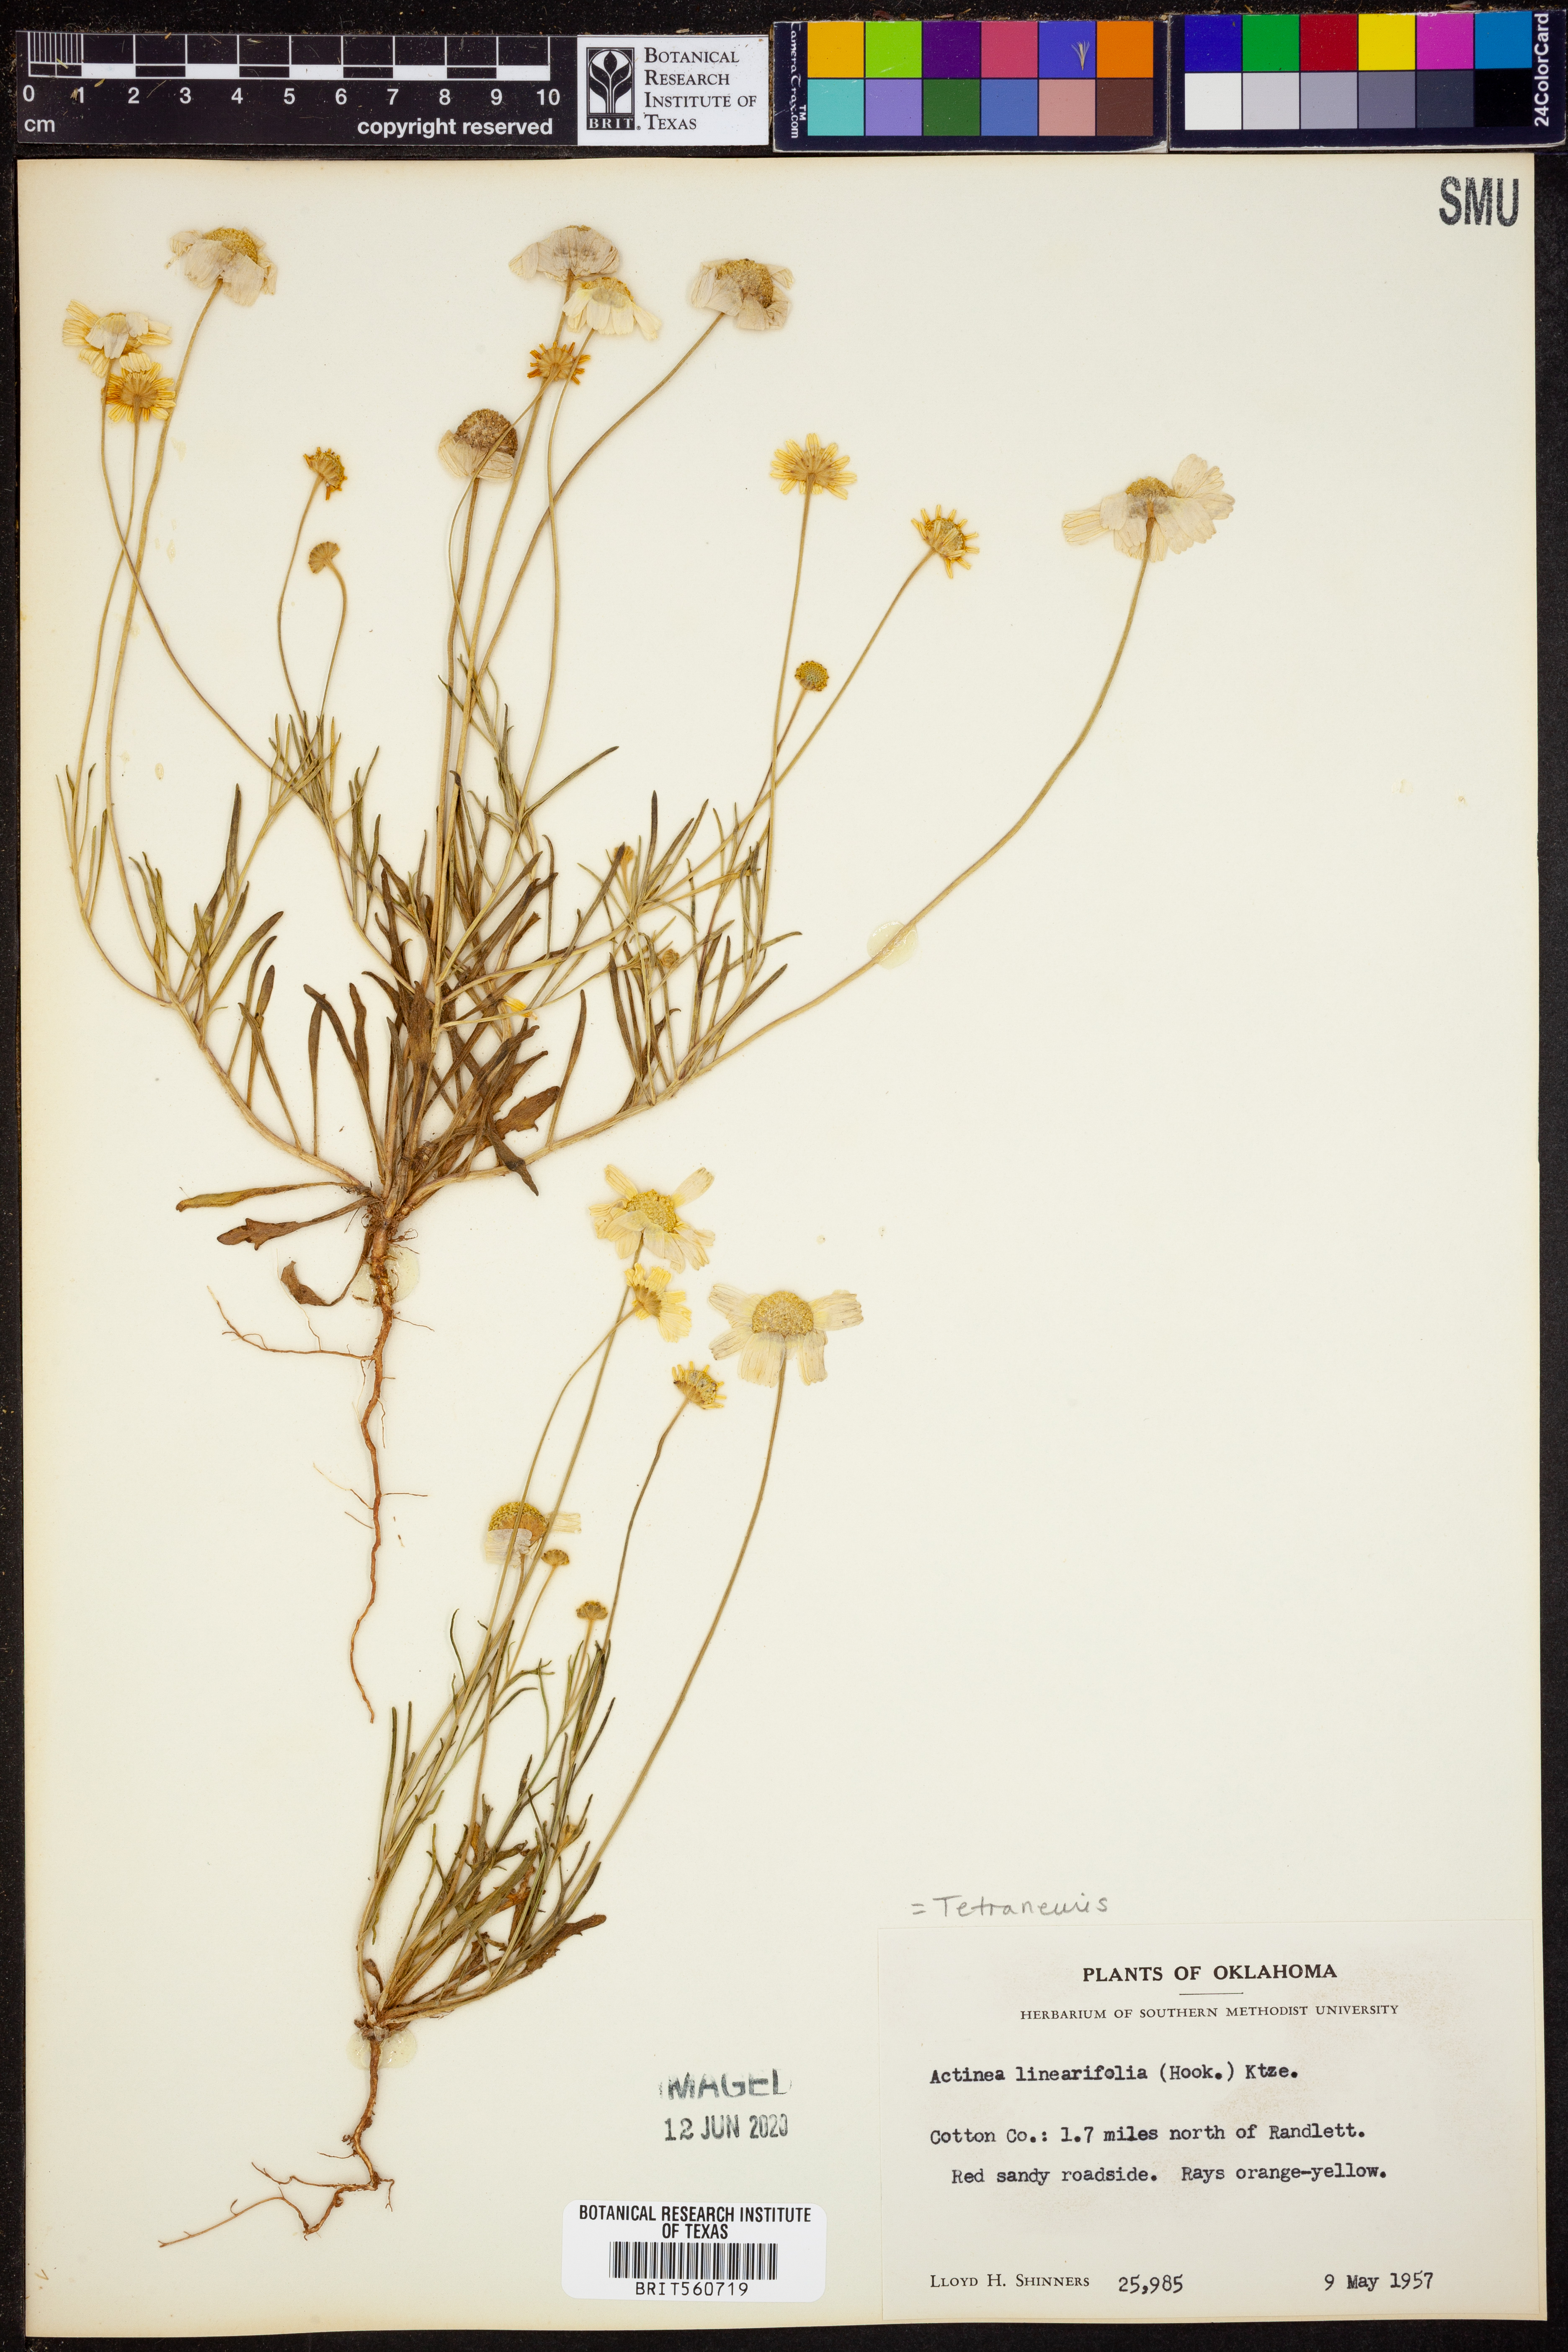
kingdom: Plantae
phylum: Tracheophyta
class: Magnoliopsida
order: Asterales
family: Asteraceae
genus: Tetraneuris
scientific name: Tetraneuris linearifolia
